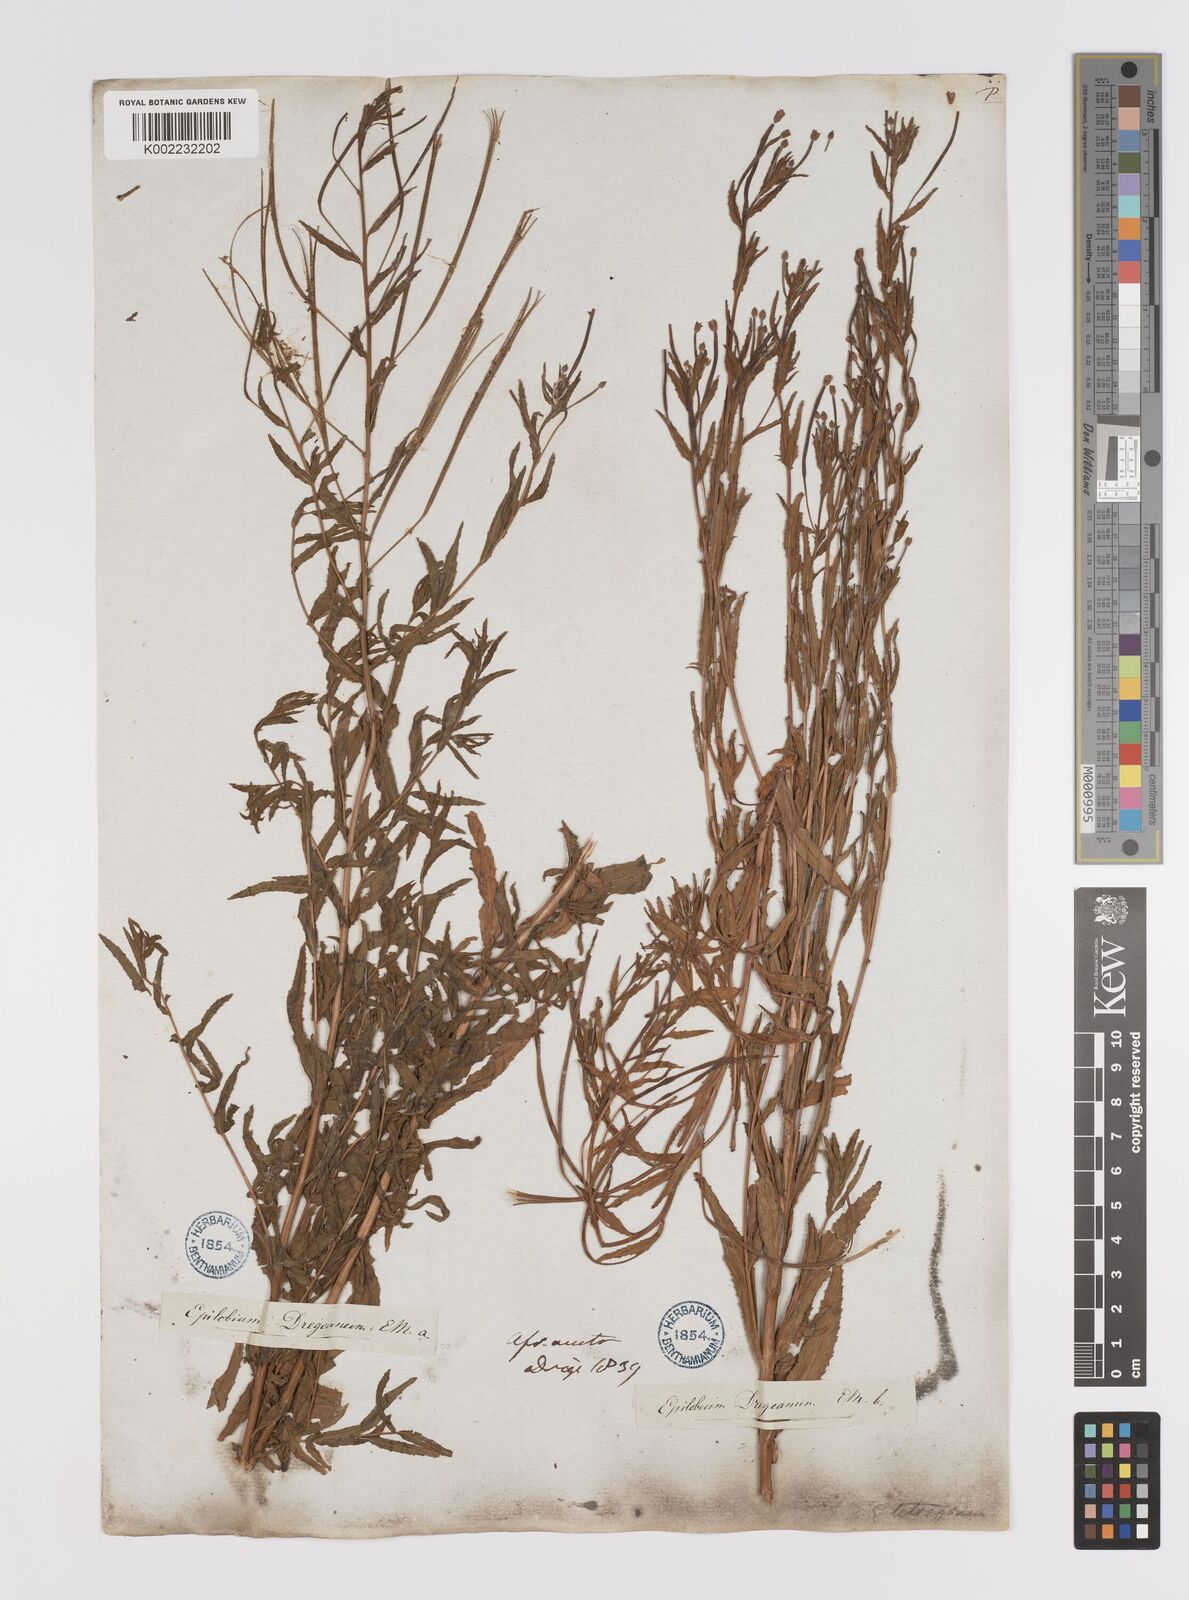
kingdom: Plantae
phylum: Tracheophyta
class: Magnoliopsida
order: Myrtales
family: Onagraceae
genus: Epilobium
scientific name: Epilobium tetragonum
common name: Square-stemmed willowherb
